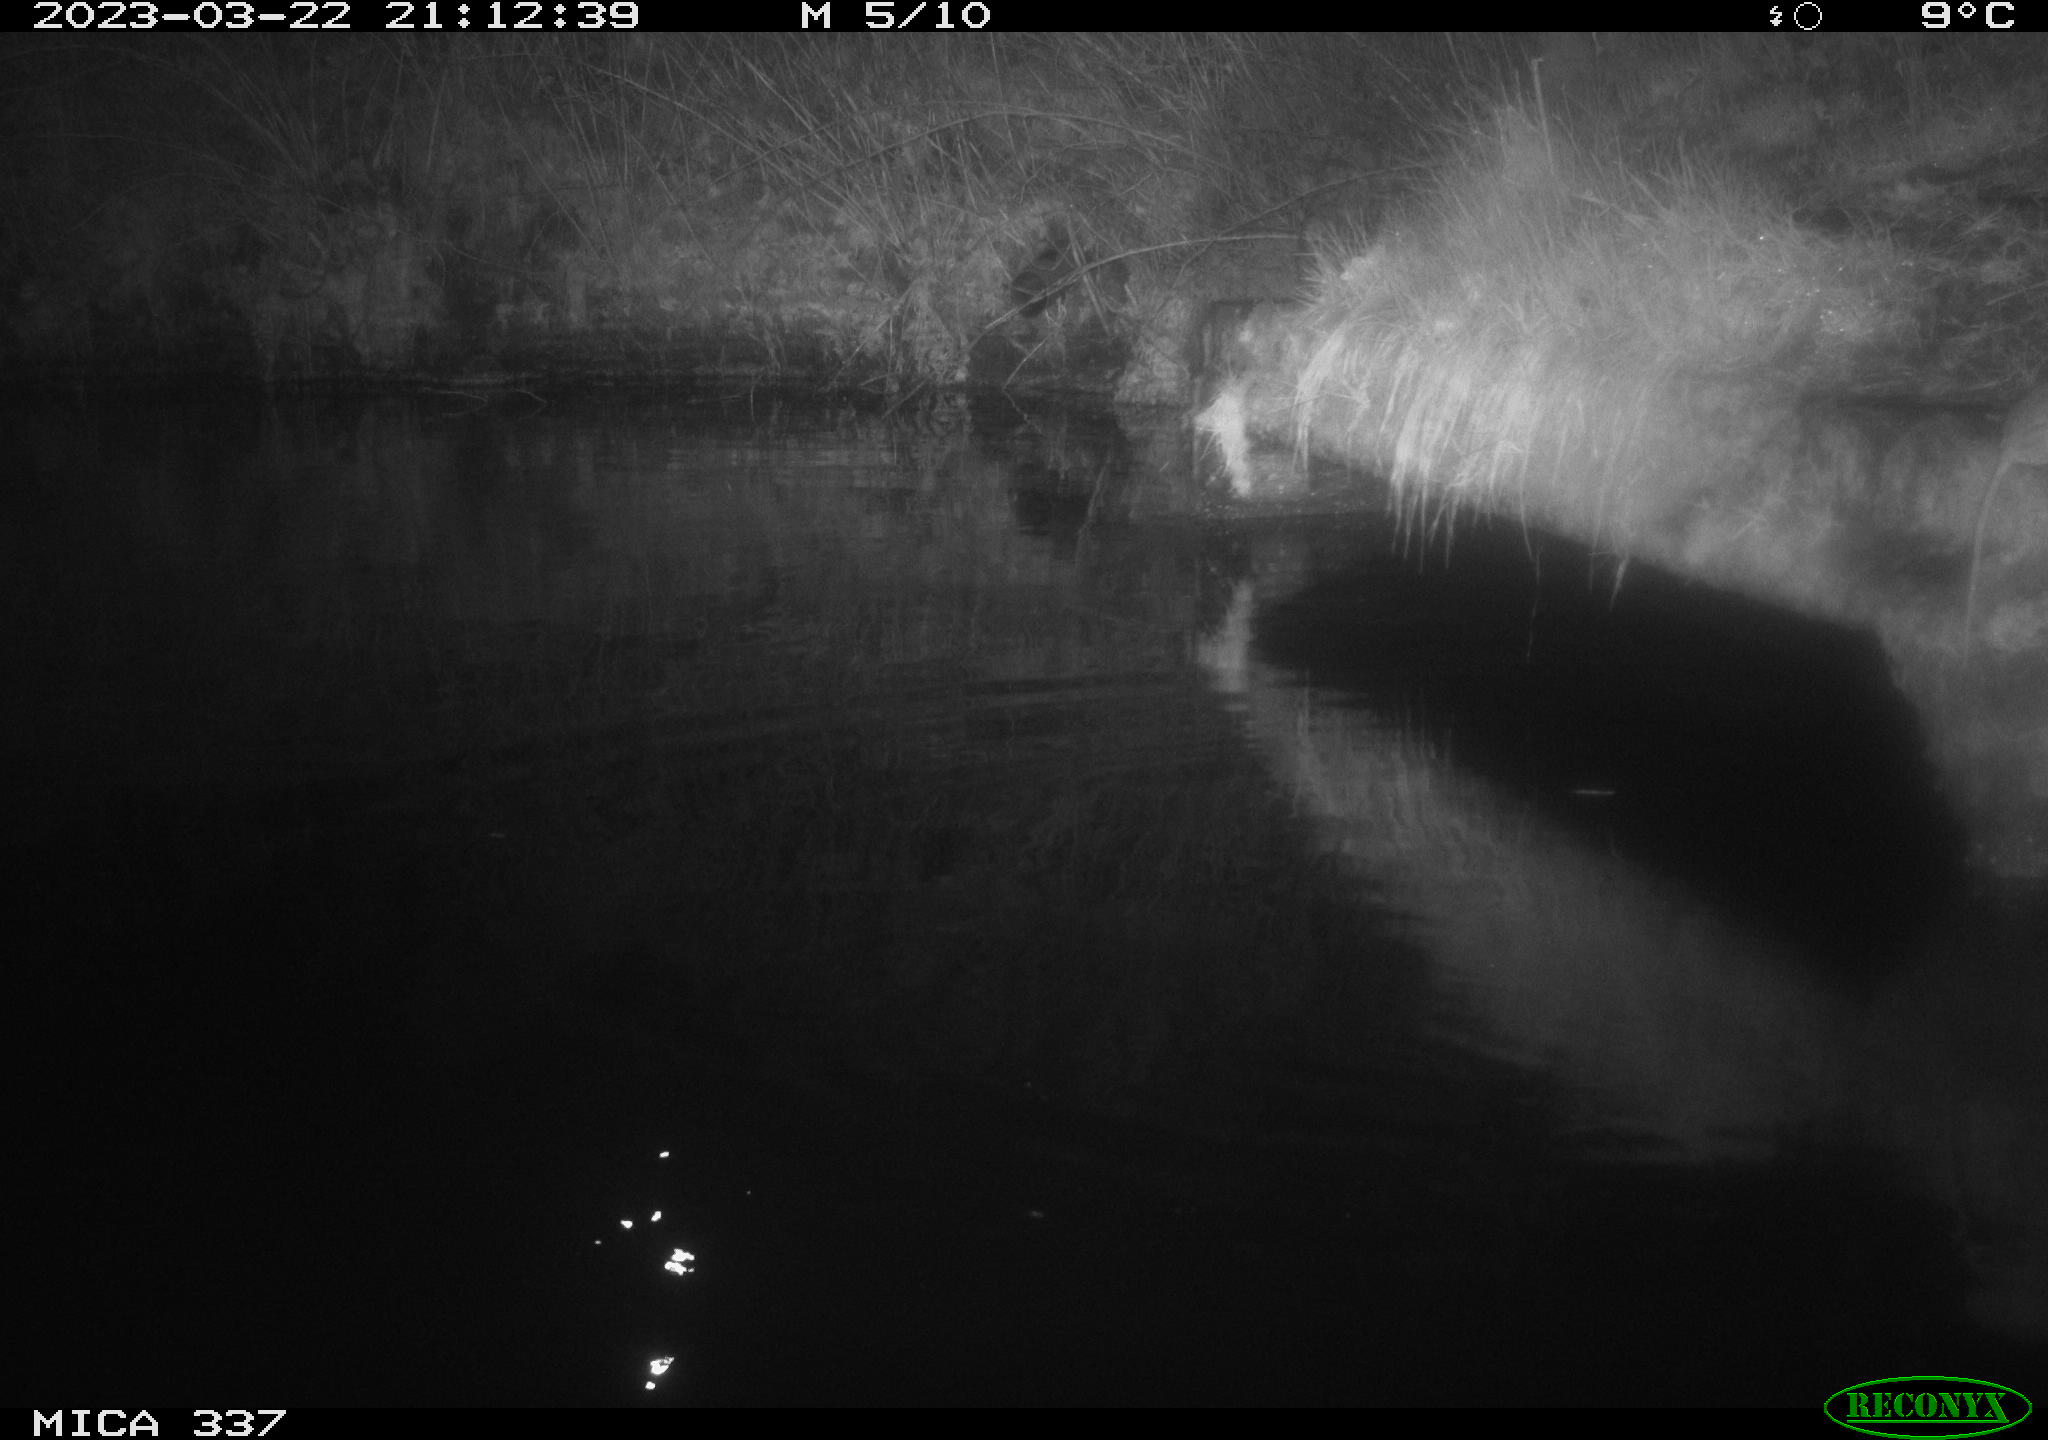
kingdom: Animalia
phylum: Chordata
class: Mammalia
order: Rodentia
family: Muridae
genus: Rattus
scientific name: Rattus norvegicus
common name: Brown rat
